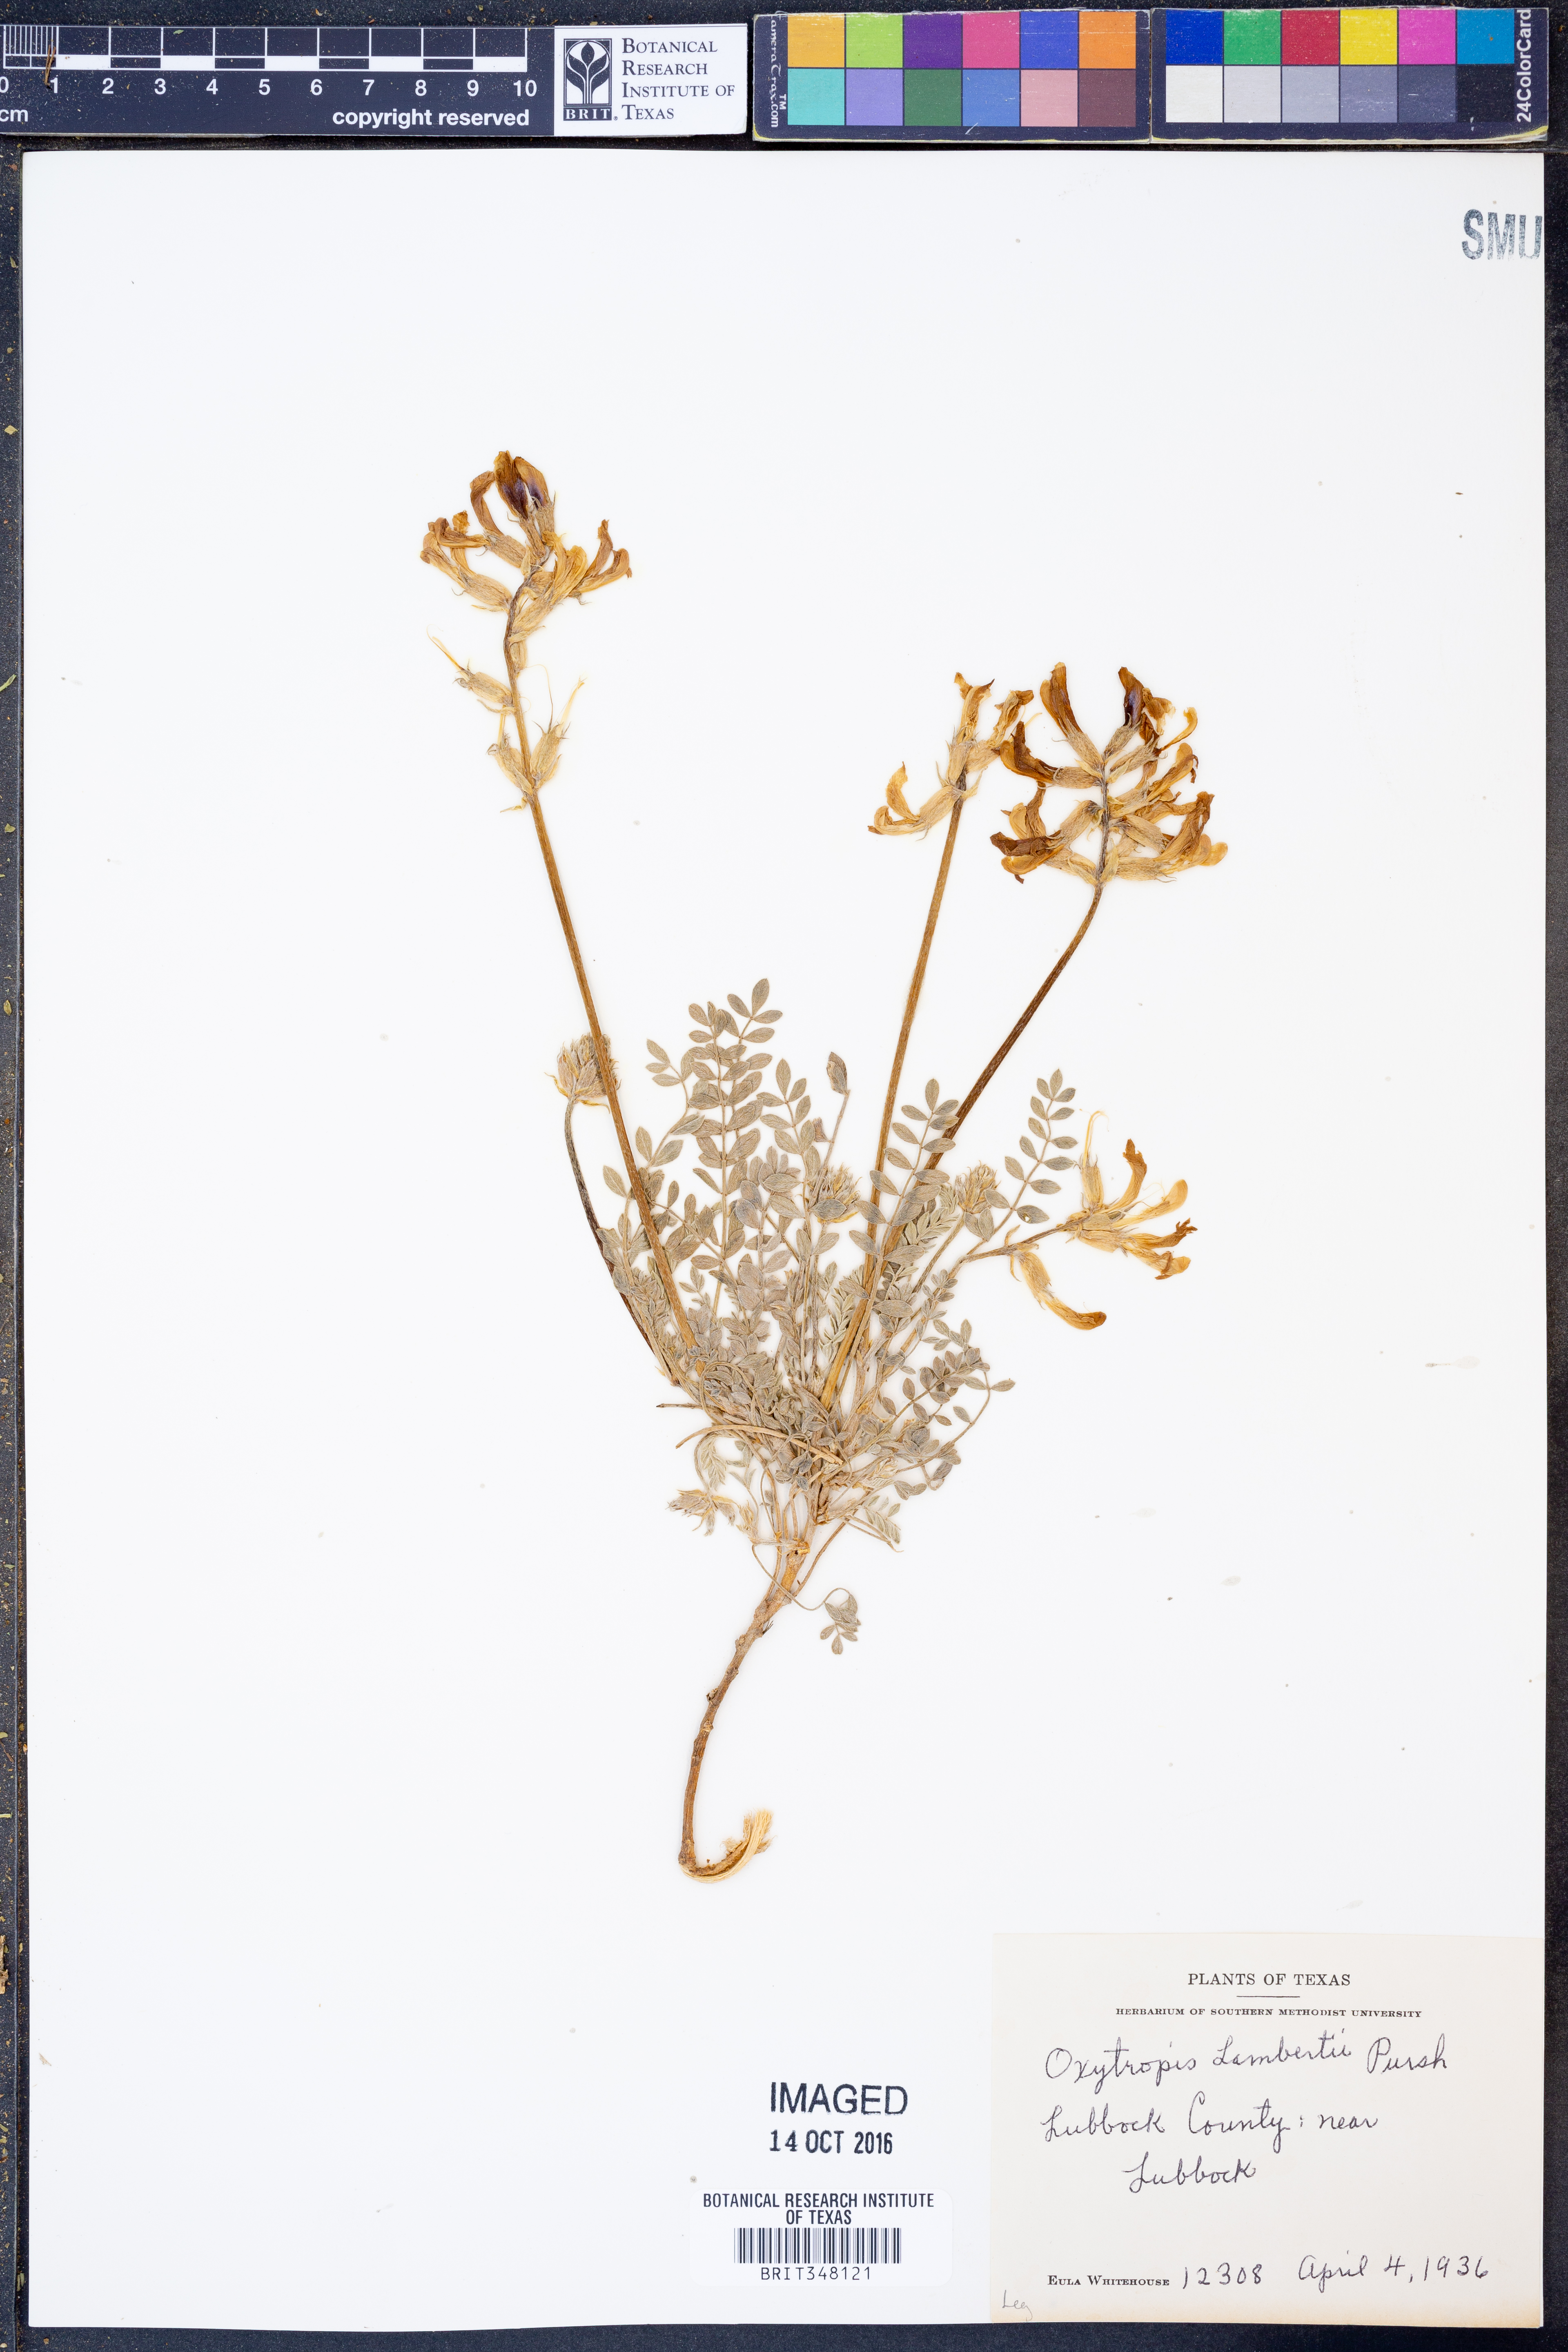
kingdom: Plantae
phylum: Tracheophyta
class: Magnoliopsida
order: Fabales
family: Fabaceae
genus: Oxytropis
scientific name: Oxytropis lambertii
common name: Purple locoweed
